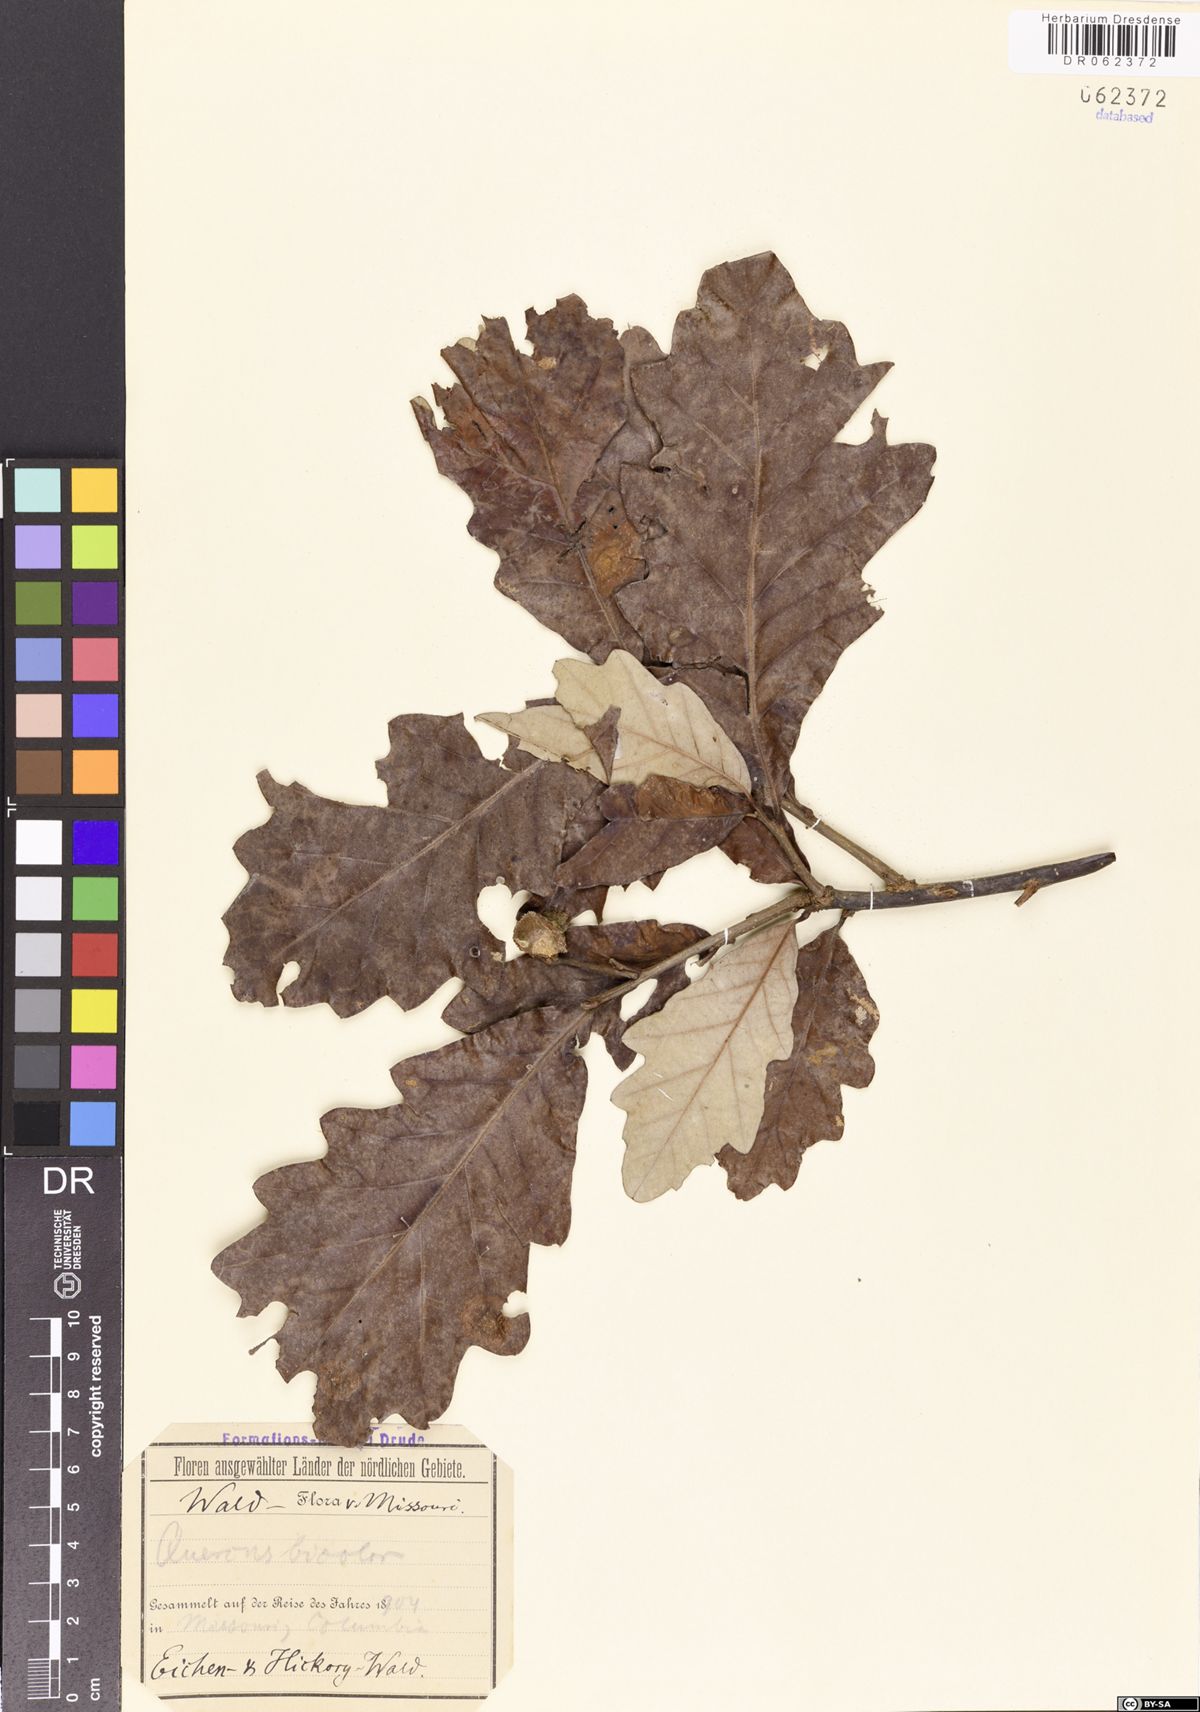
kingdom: Plantae
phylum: Tracheophyta
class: Magnoliopsida
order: Fagales
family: Fagaceae
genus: Quercus
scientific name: Quercus bicolor
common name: Swamp white oak
